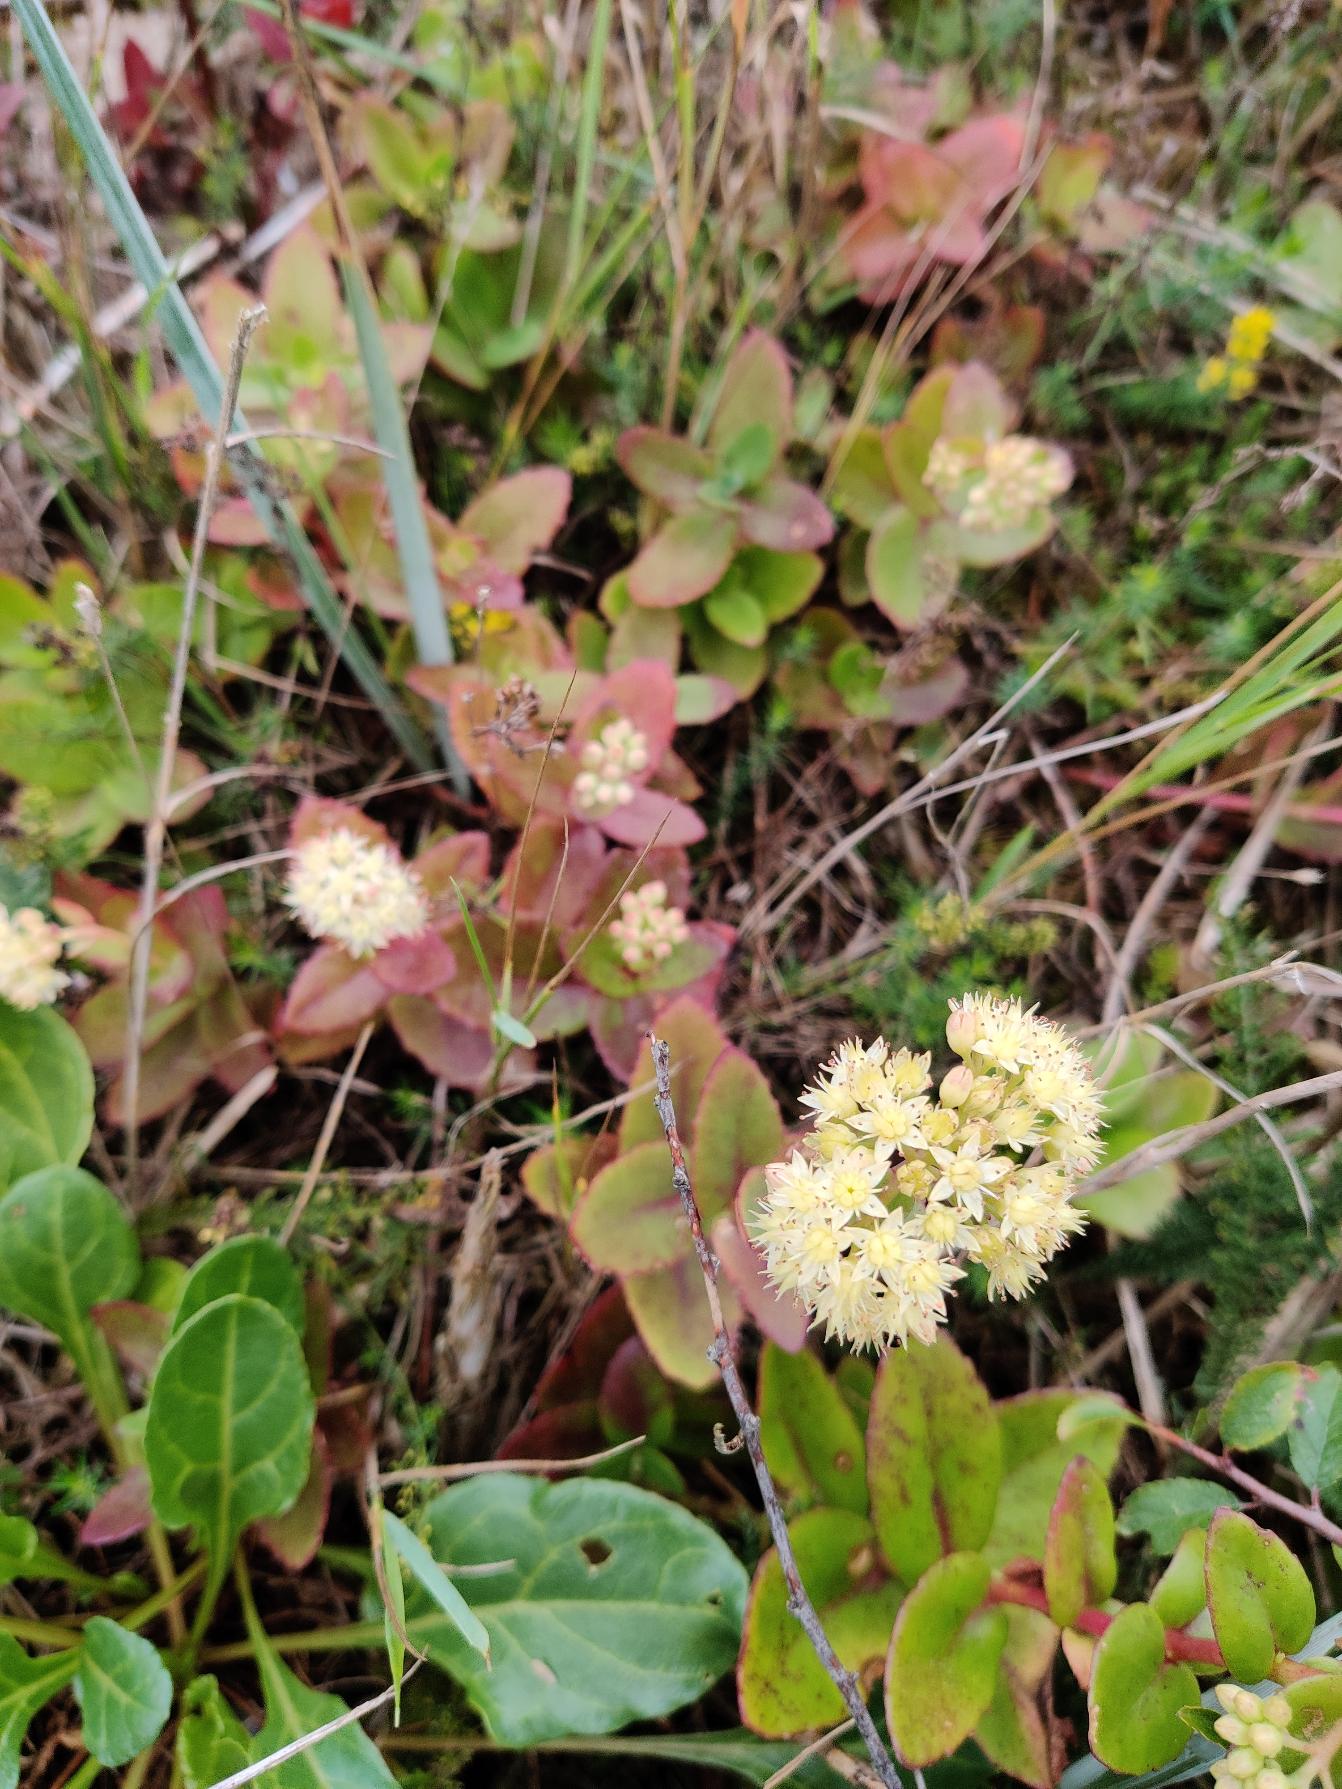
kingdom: Plantae
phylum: Tracheophyta
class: Magnoliopsida
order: Saxifragales
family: Crassulaceae
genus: Hylotelephium
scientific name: Hylotelephium maximum
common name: Almindelig sankthansurt
